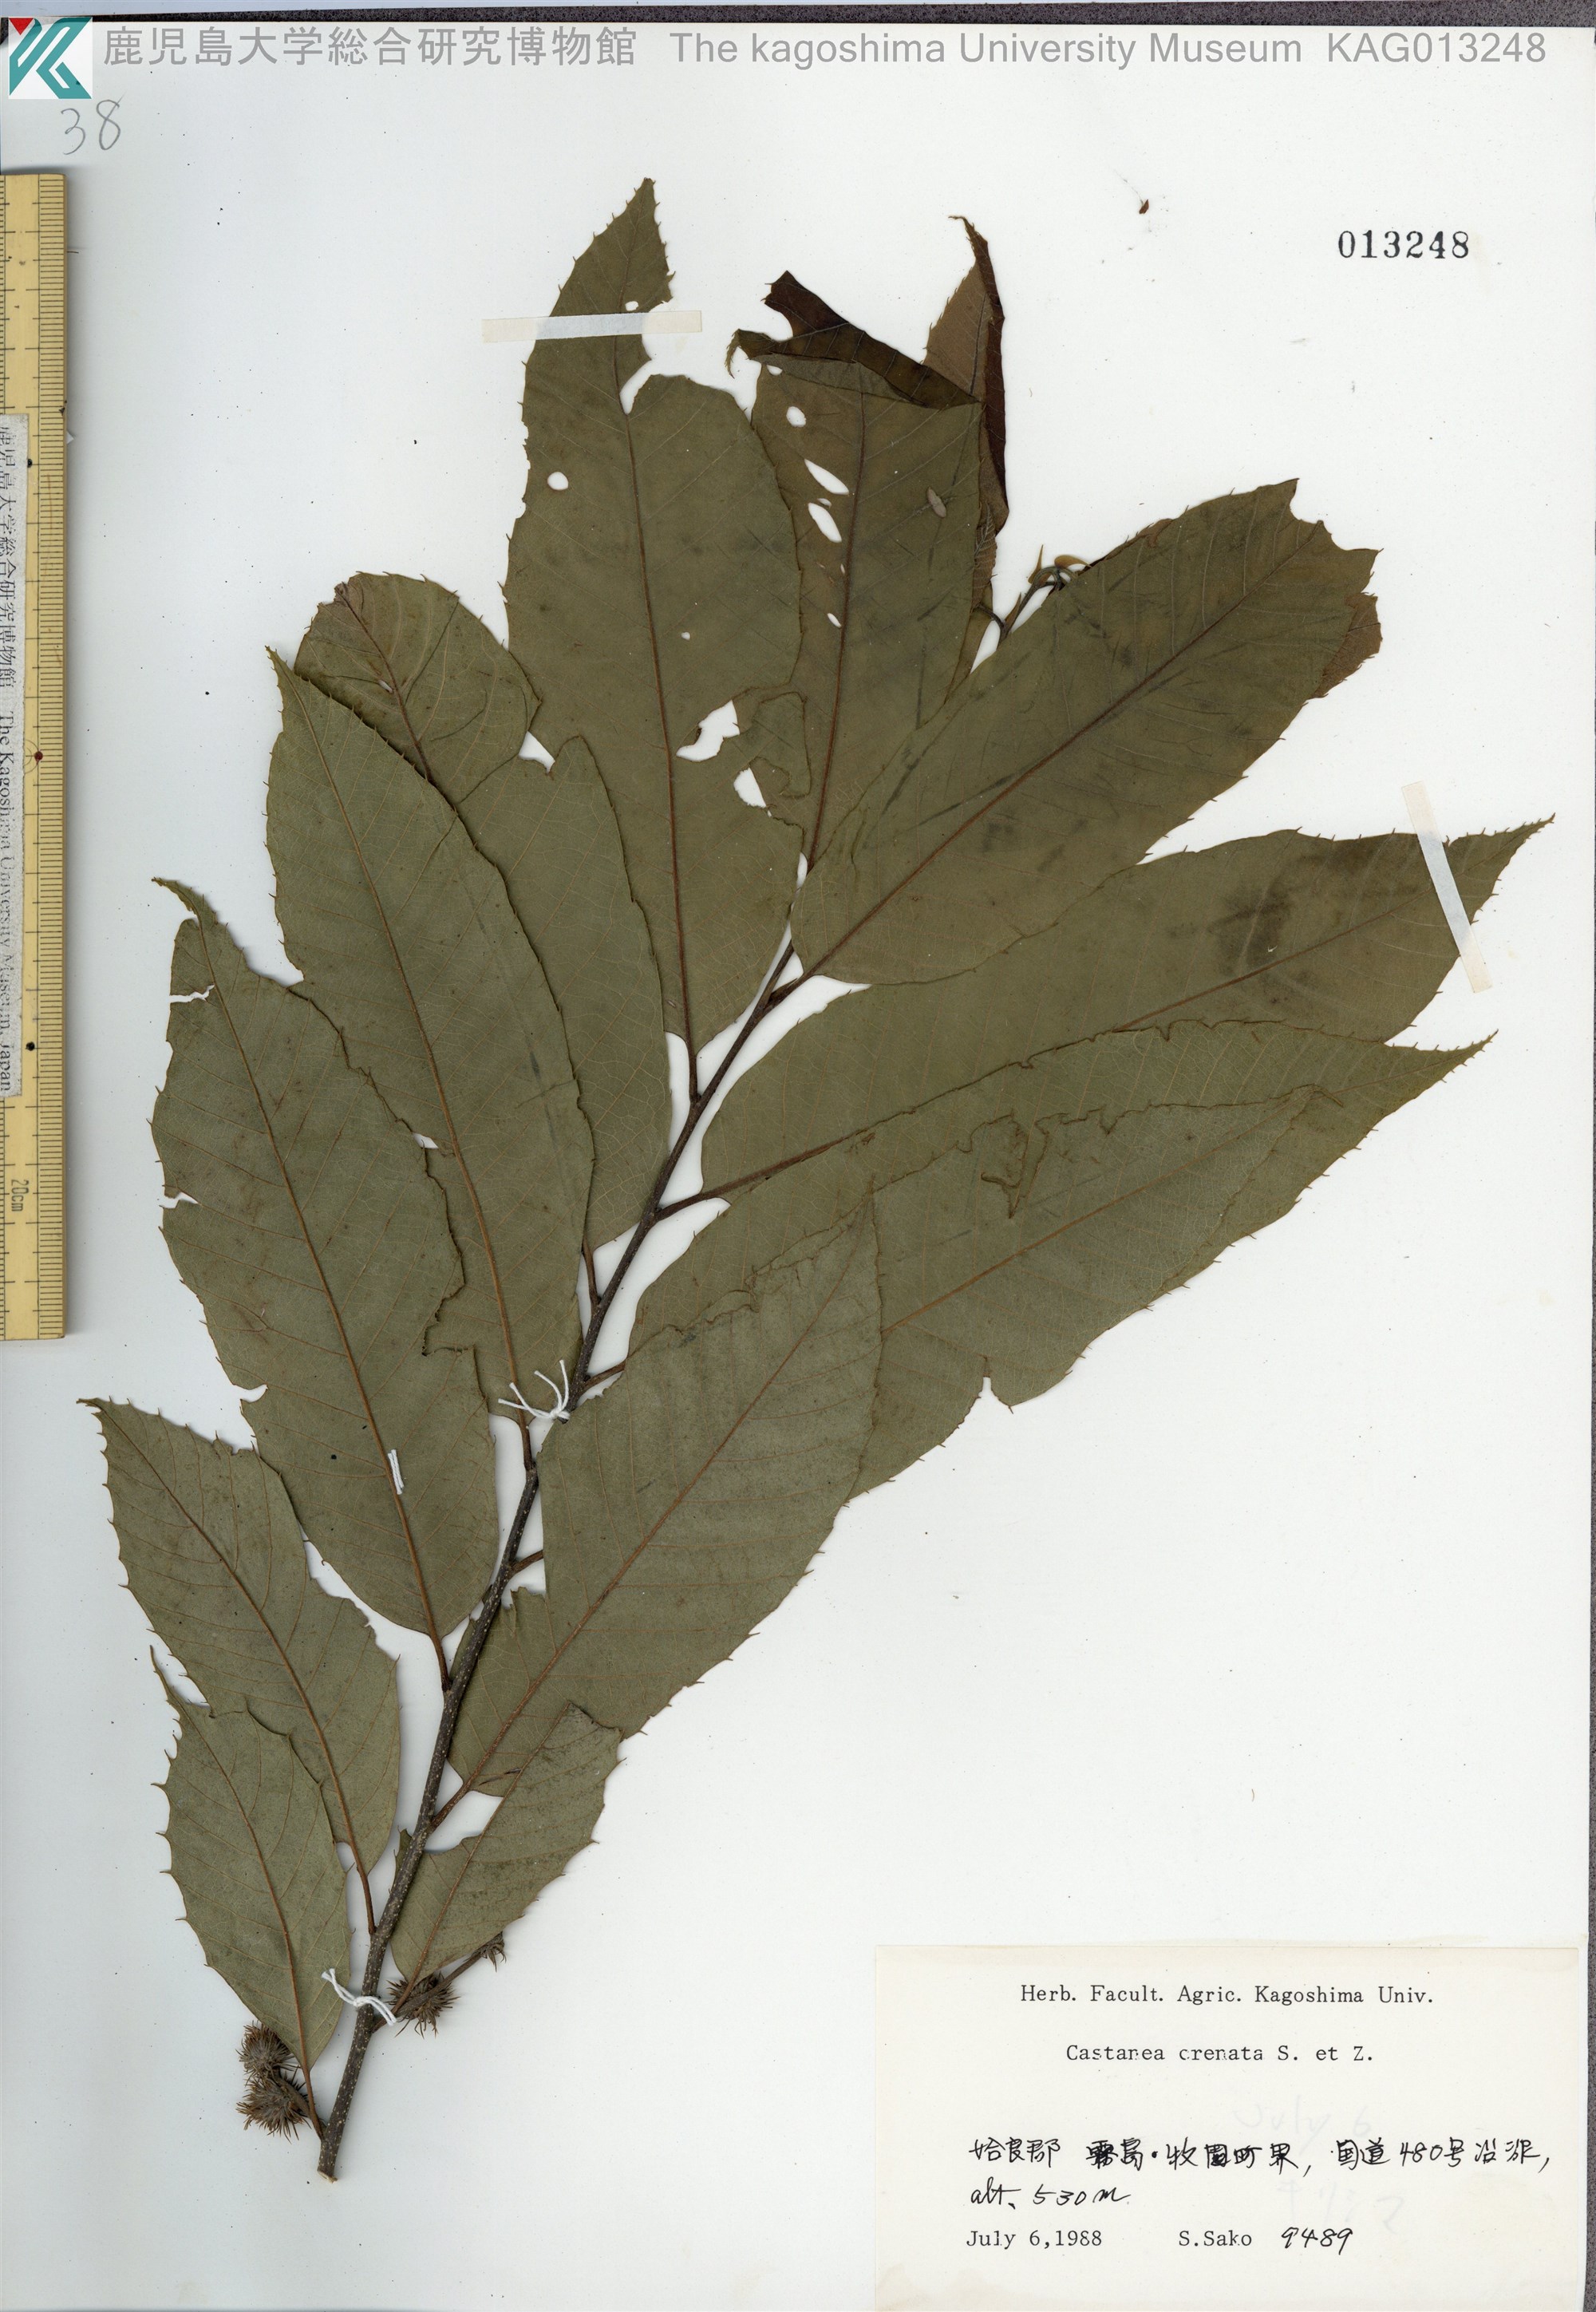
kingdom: Plantae
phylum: Tracheophyta
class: Magnoliopsida
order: Fagales
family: Fagaceae
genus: Castanea
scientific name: Castanea crenata
